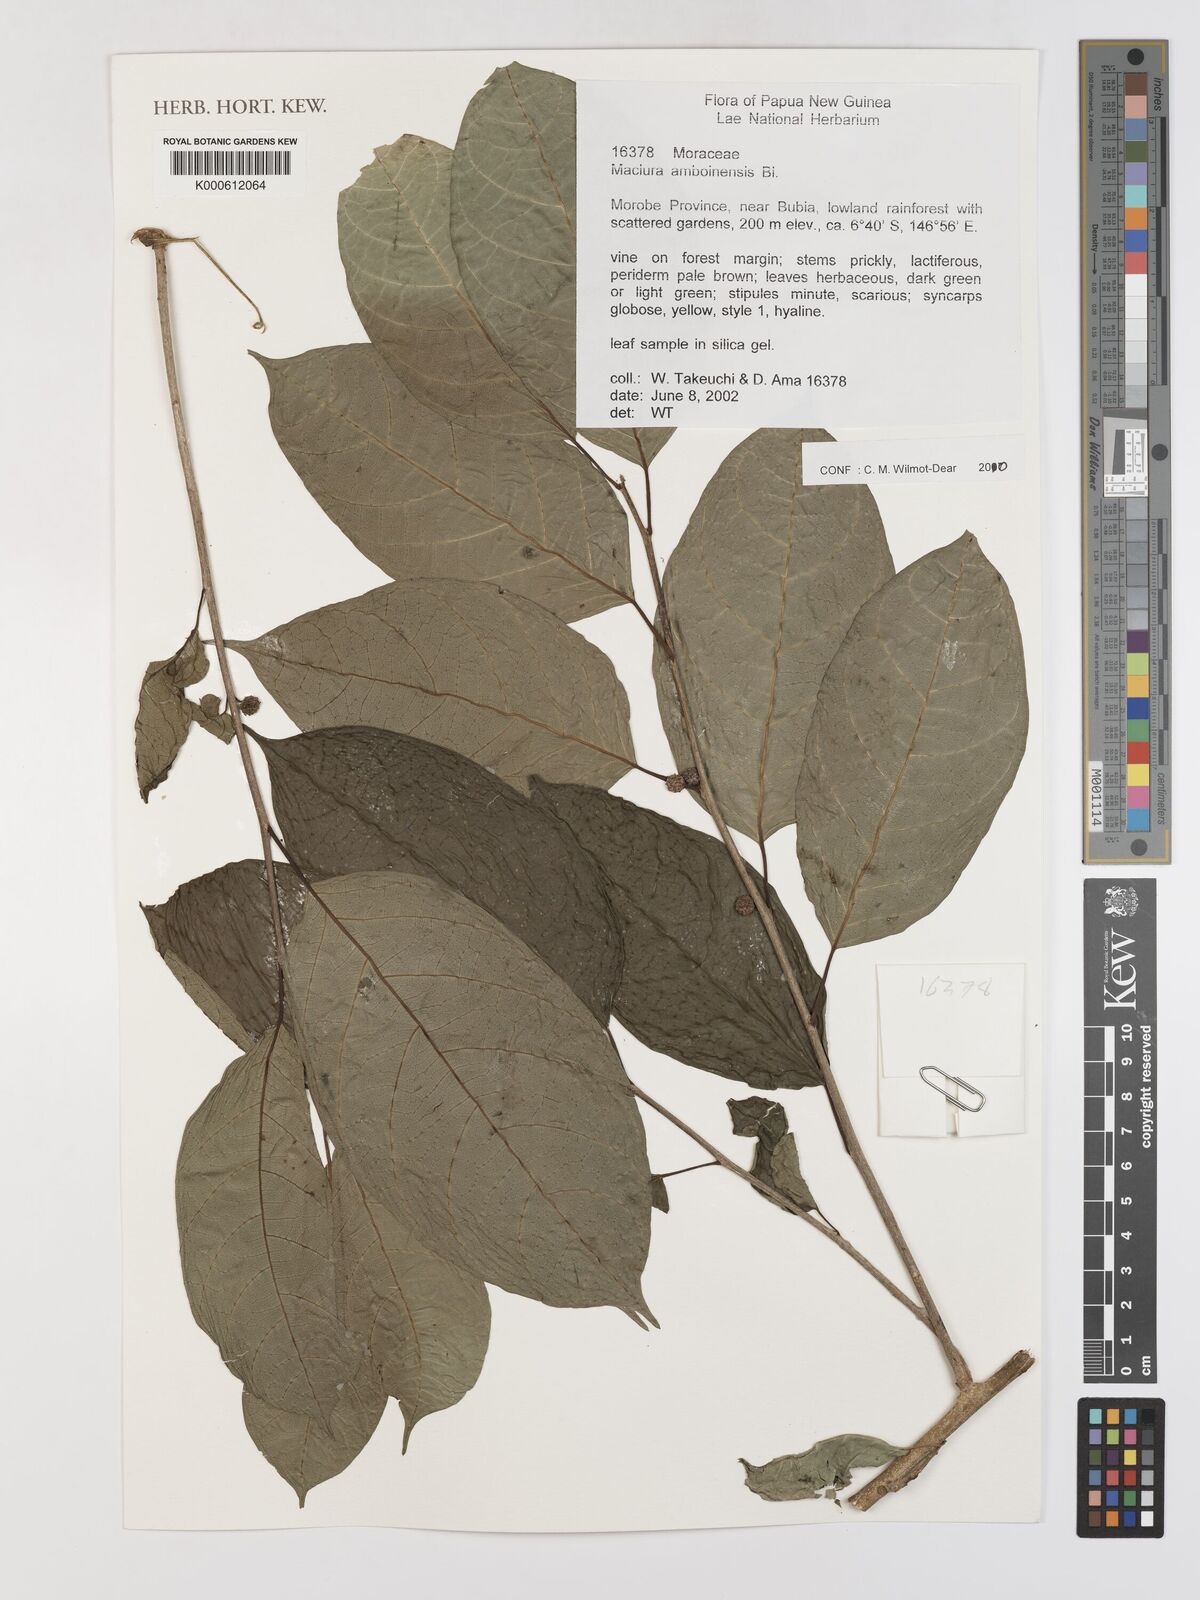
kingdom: Plantae
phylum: Tracheophyta
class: Magnoliopsida
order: Rosales
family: Moraceae
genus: Maclura
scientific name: Maclura cochinchinensis
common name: Cockspurthorn
